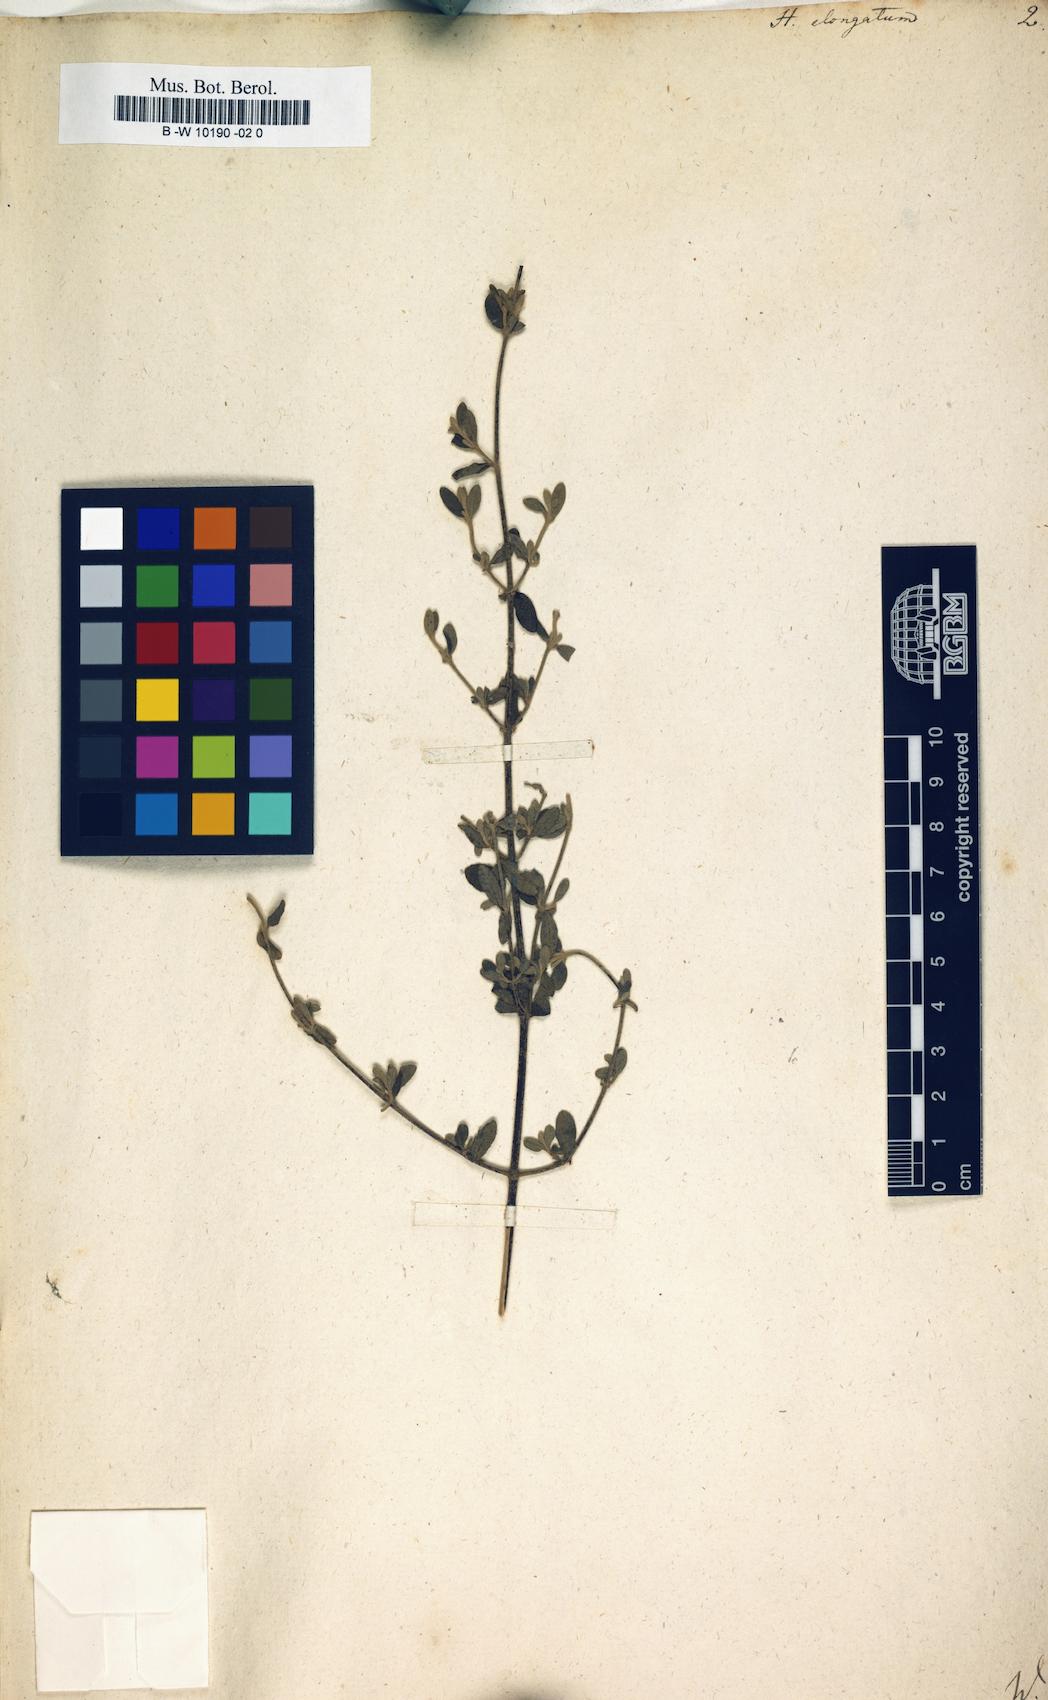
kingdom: Plantae
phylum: Tracheophyta
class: Magnoliopsida
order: Malvales
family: Cistaceae
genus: Halimium
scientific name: Halimium lasianthum
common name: Lisbon false sun-rose
